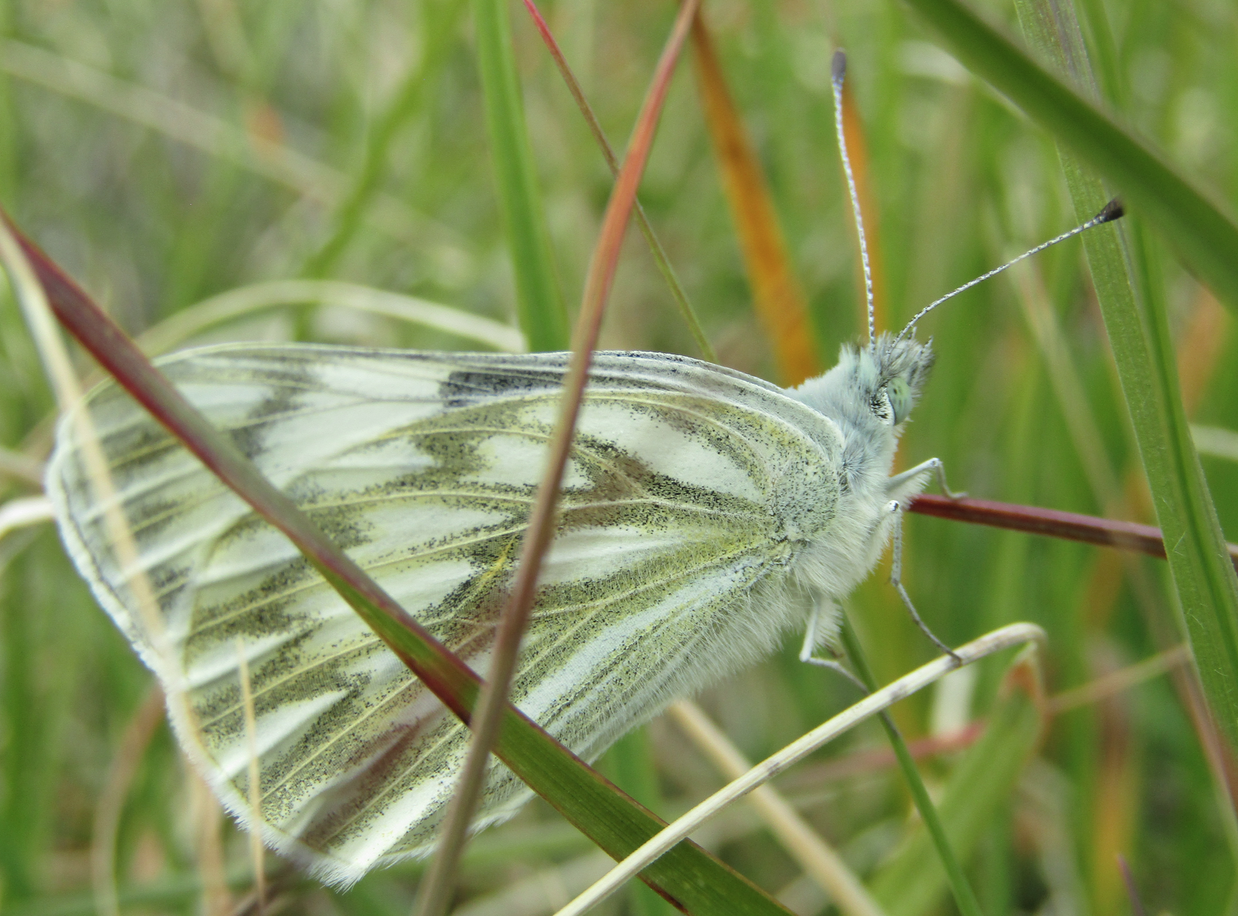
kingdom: Animalia
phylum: Arthropoda
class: Insecta
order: Lepidoptera
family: Pieridae
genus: Pontia
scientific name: Pontia occidentalis
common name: Western White
